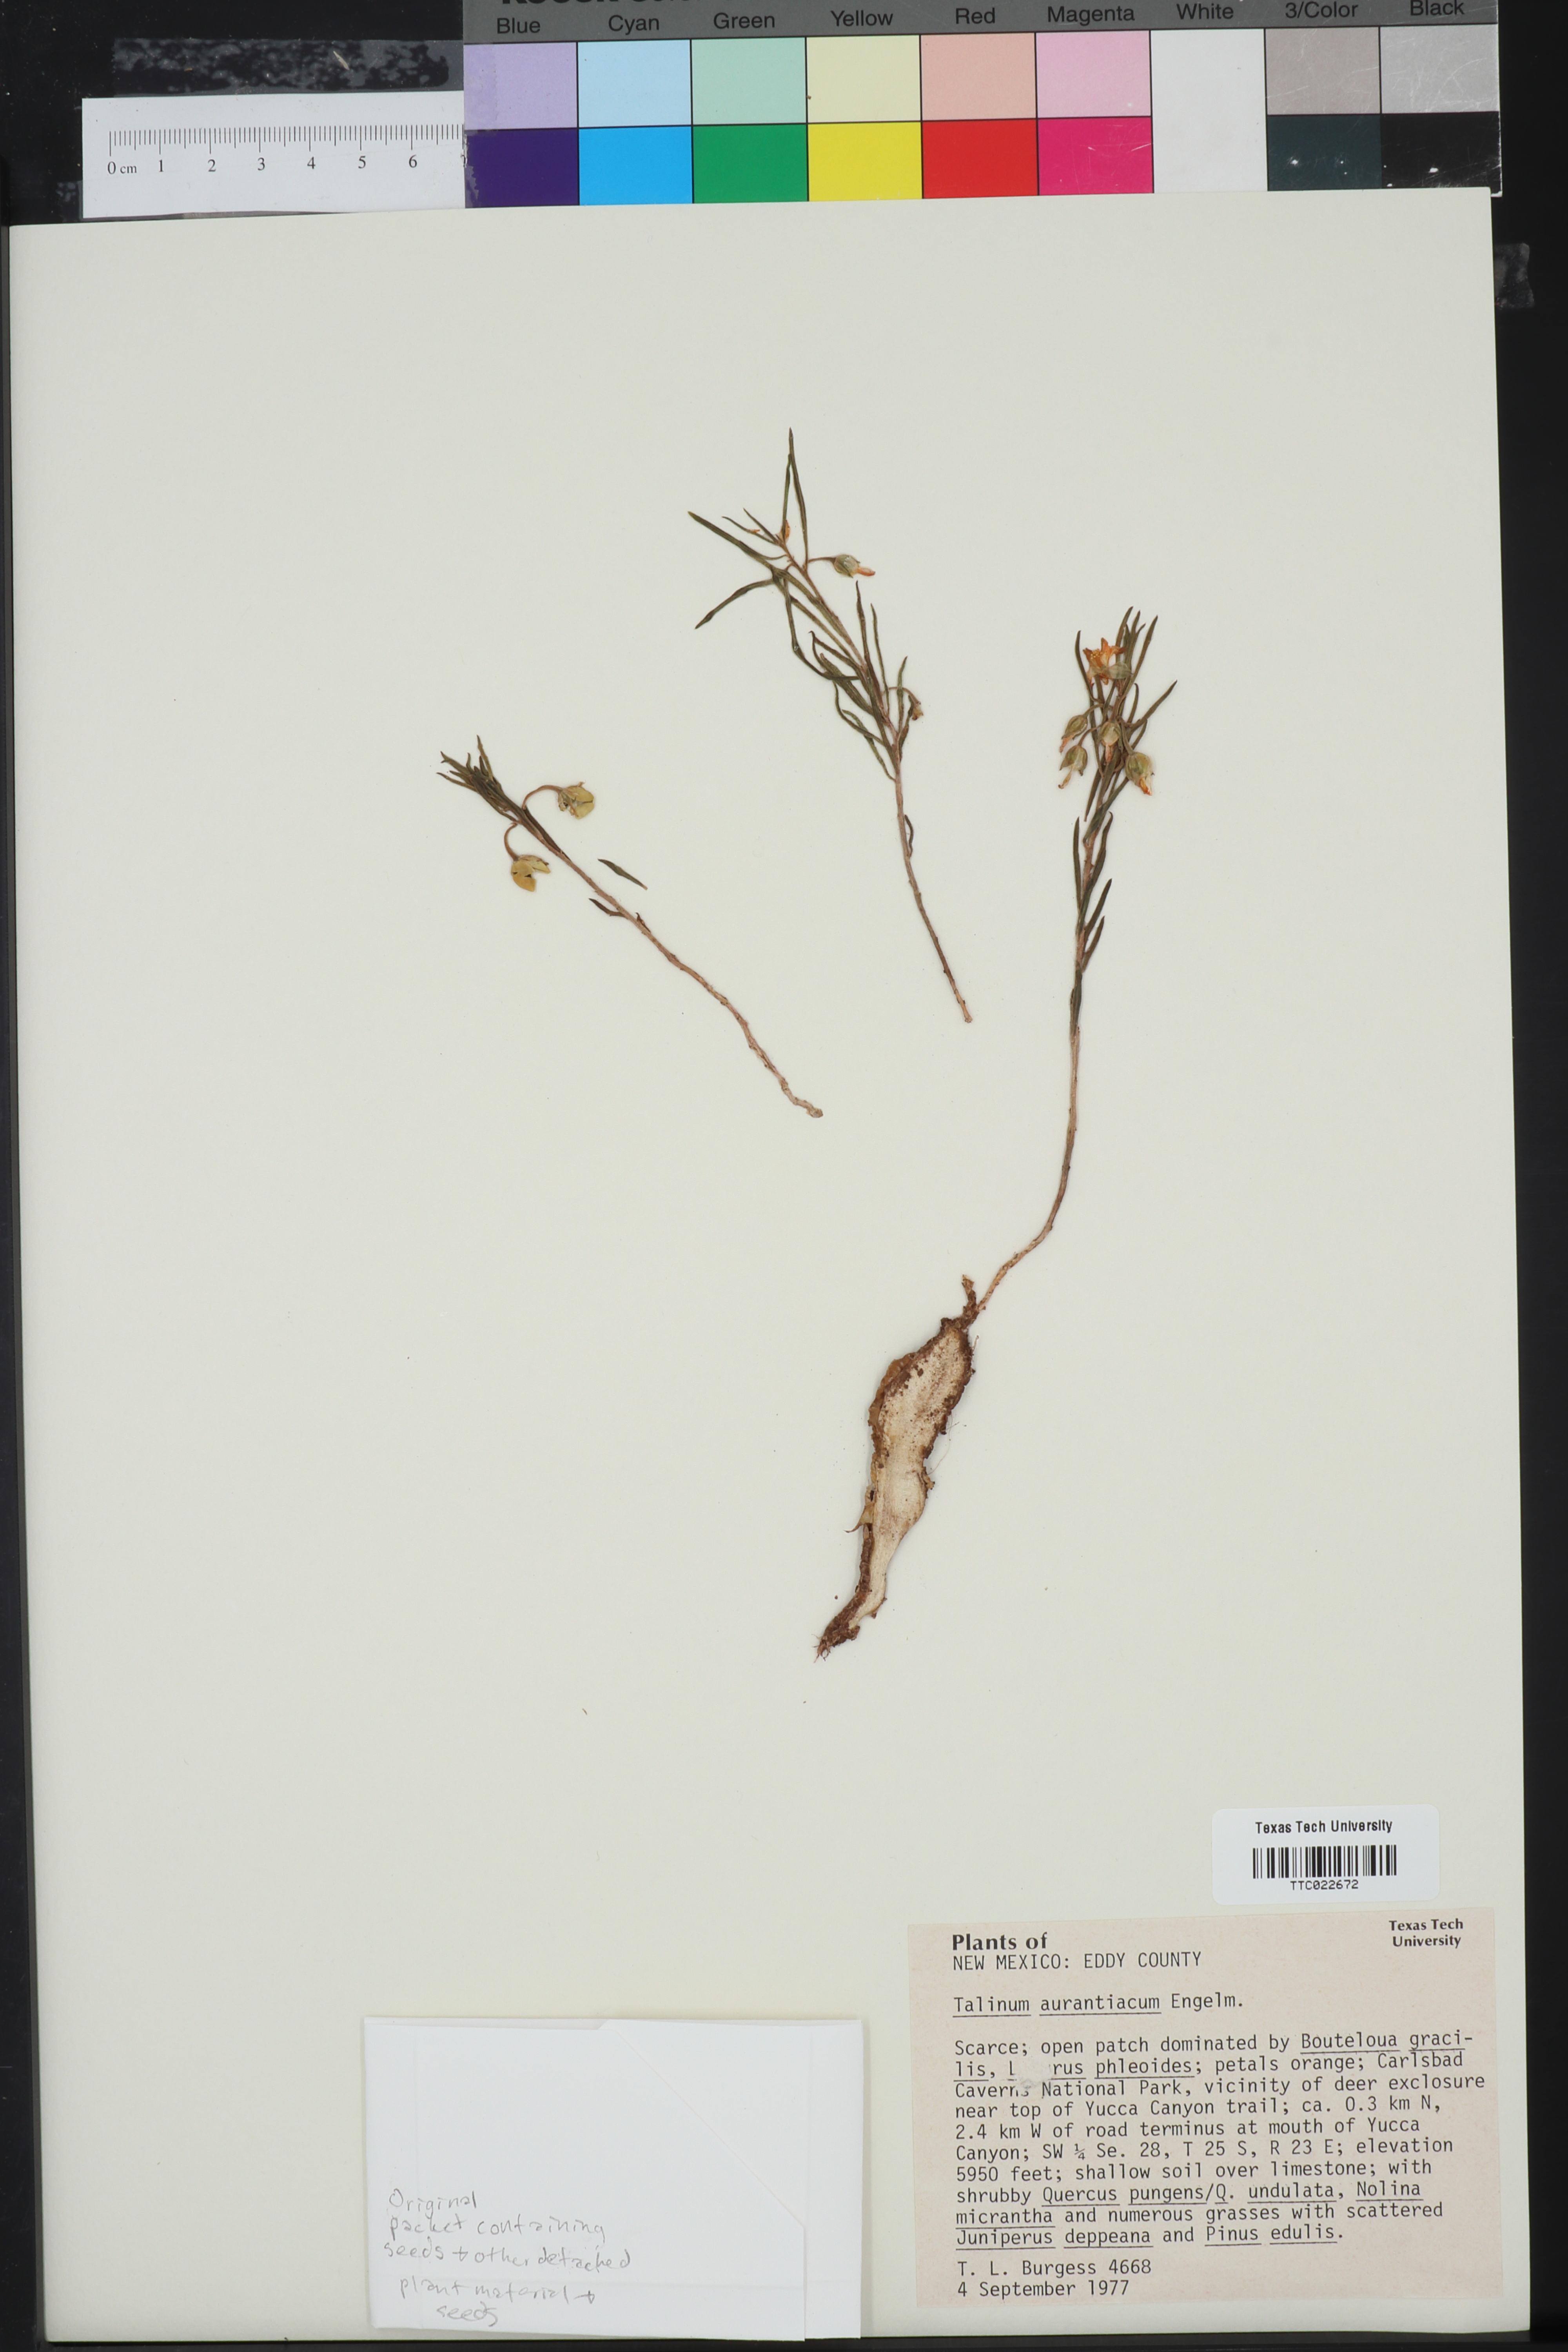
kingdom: Plantae
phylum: Tracheophyta
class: Magnoliopsida
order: Caryophyllales
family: Montiaceae
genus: Phemeranthus
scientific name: Phemeranthus aurantiacus
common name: Orange fameflower
